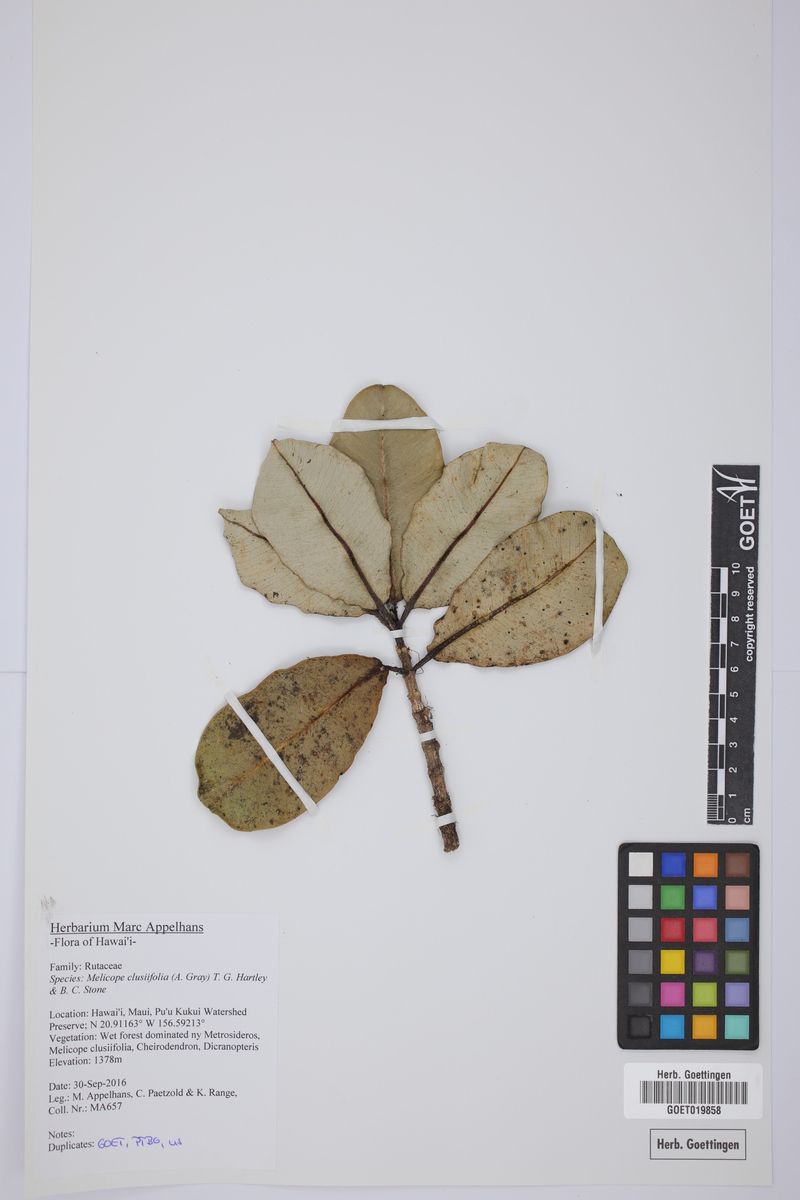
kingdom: Plantae
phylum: Tracheophyta
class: Magnoliopsida
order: Sapindales
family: Rutaceae
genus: Melicope
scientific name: Melicope clusiifolia
